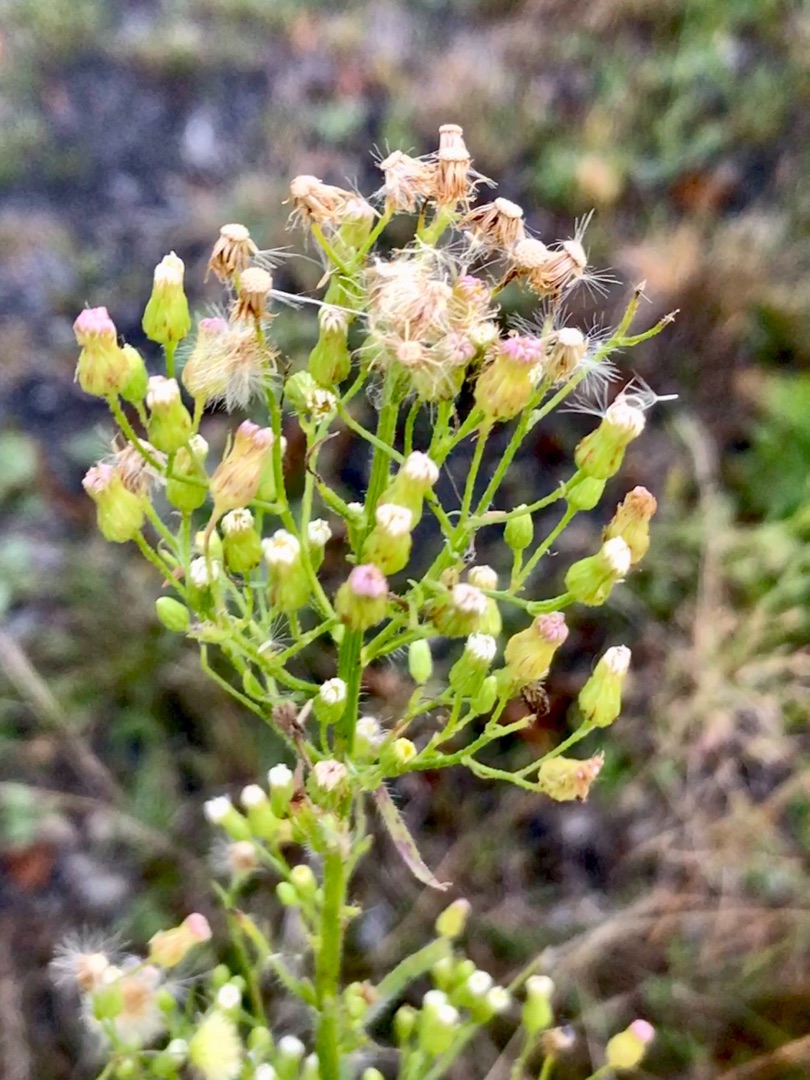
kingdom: Plantae
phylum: Tracheophyta
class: Magnoliopsida
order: Asterales
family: Asteraceae
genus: Erigeron
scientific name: Erigeron canadensis
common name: Kanadisk bakkestjerne
